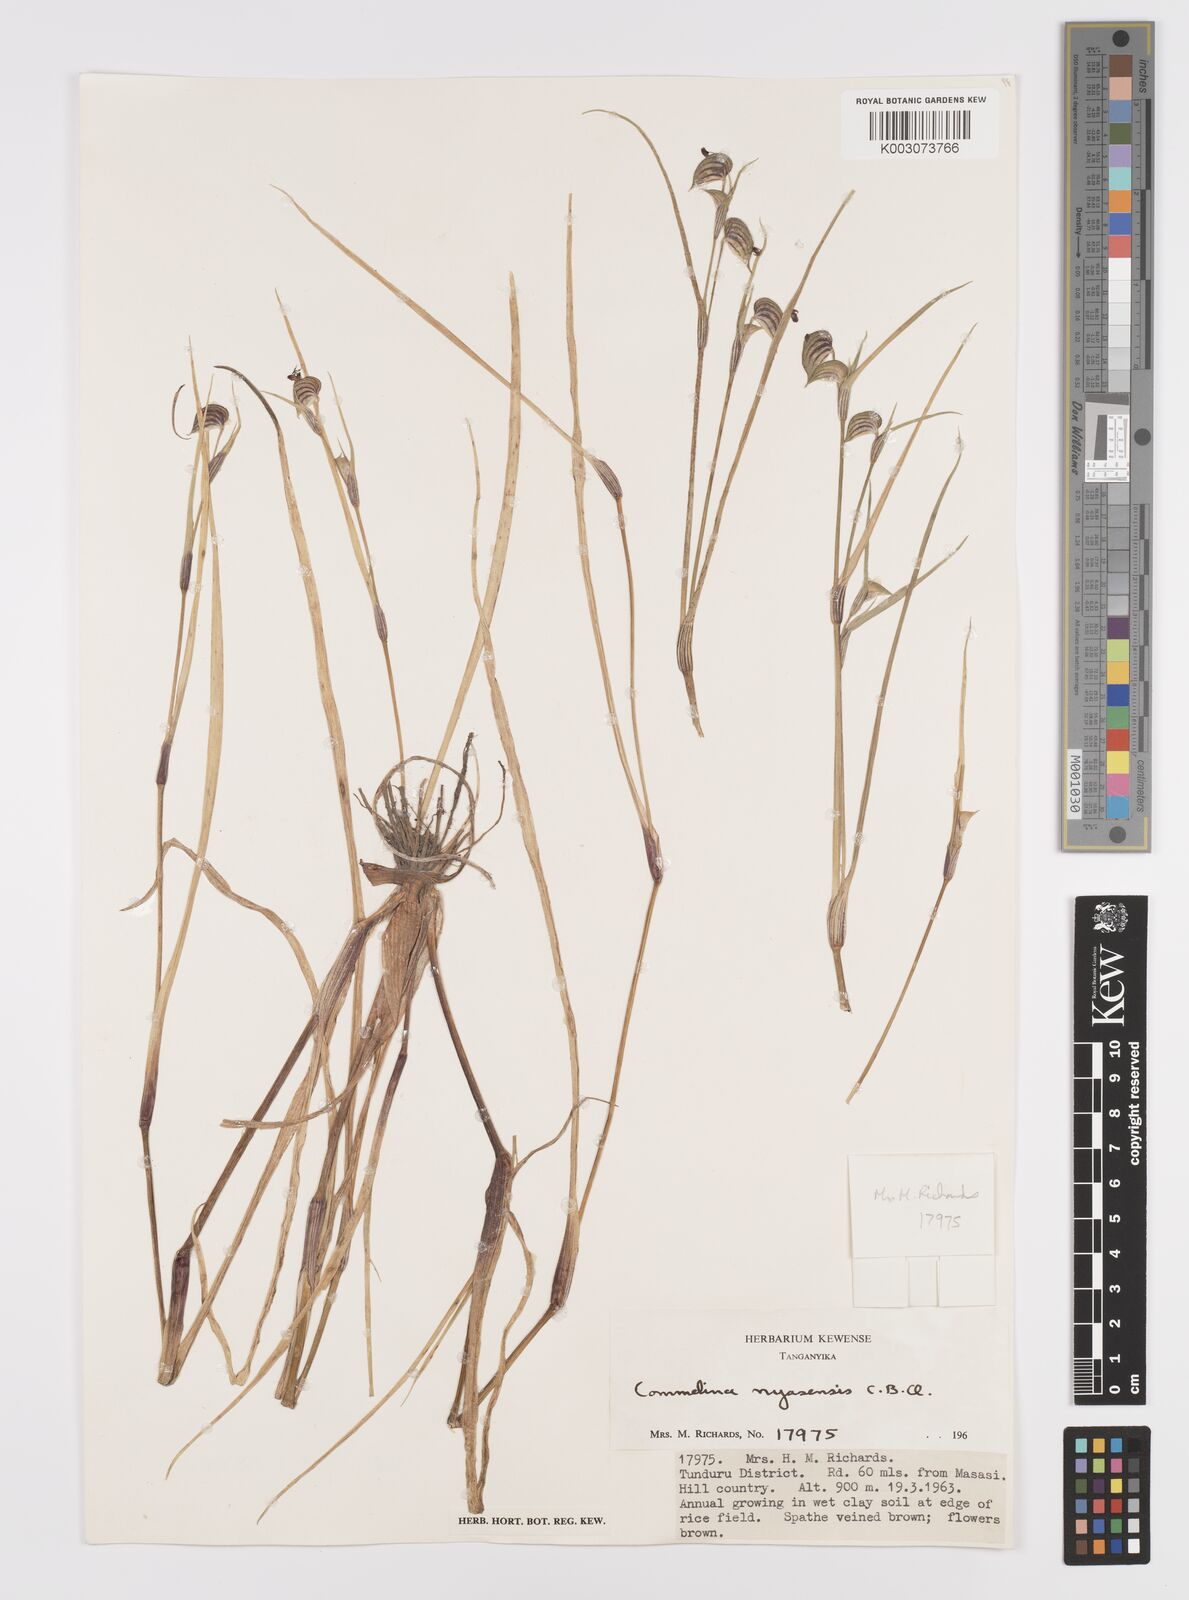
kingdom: Plantae
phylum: Tracheophyta
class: Liliopsida
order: Commelinales
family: Commelinaceae
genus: Commelina
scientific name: Commelina nyasensis
